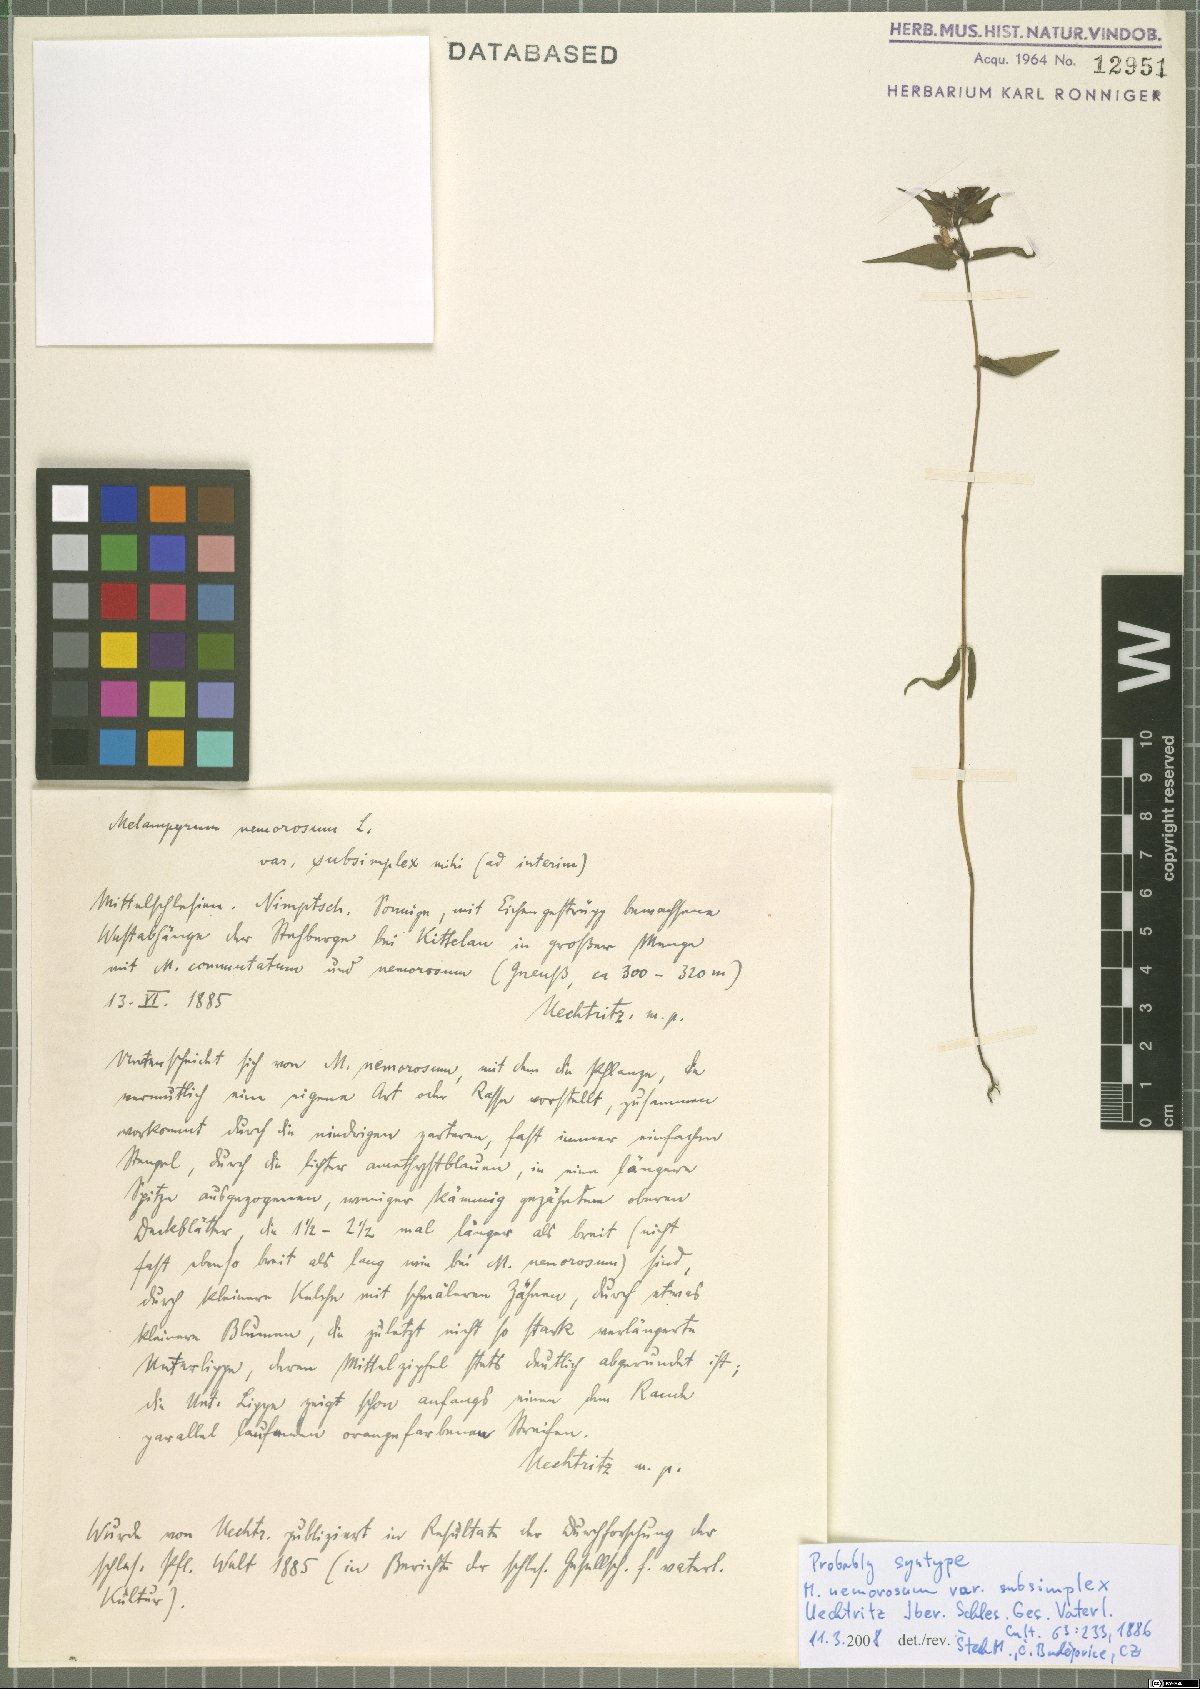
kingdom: Plantae
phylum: Tracheophyta
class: Magnoliopsida
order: Lamiales
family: Orobanchaceae
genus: Melampyrum
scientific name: Melampyrum nemorosum
